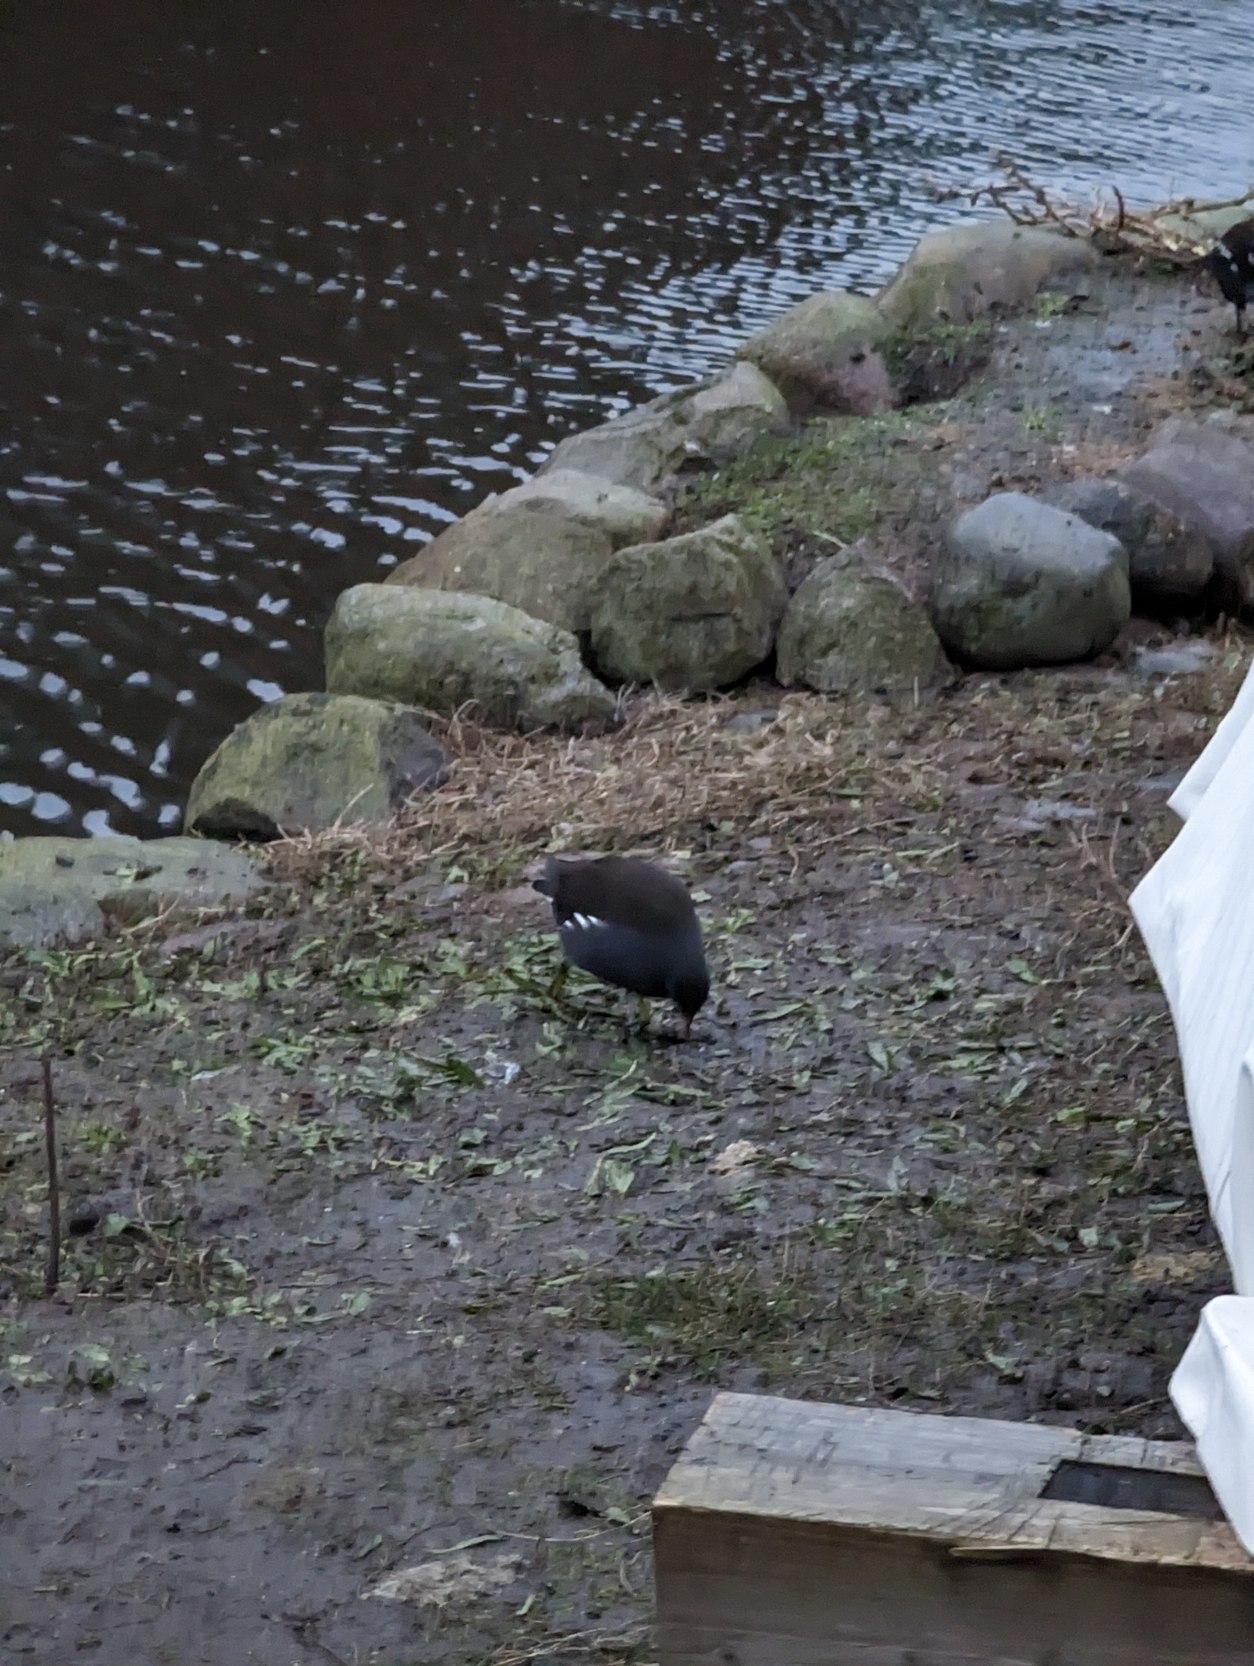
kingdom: Animalia
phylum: Chordata
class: Aves
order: Gruiformes
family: Rallidae
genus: Gallinula
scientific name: Gallinula chloropus
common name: Grønbenet rørhøne
